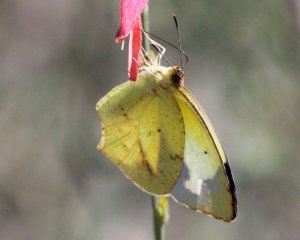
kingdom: Animalia
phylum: Arthropoda
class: Insecta
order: Lepidoptera
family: Pieridae
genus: Eurema
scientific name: Eurema mexicana
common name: Mexican Yellow
